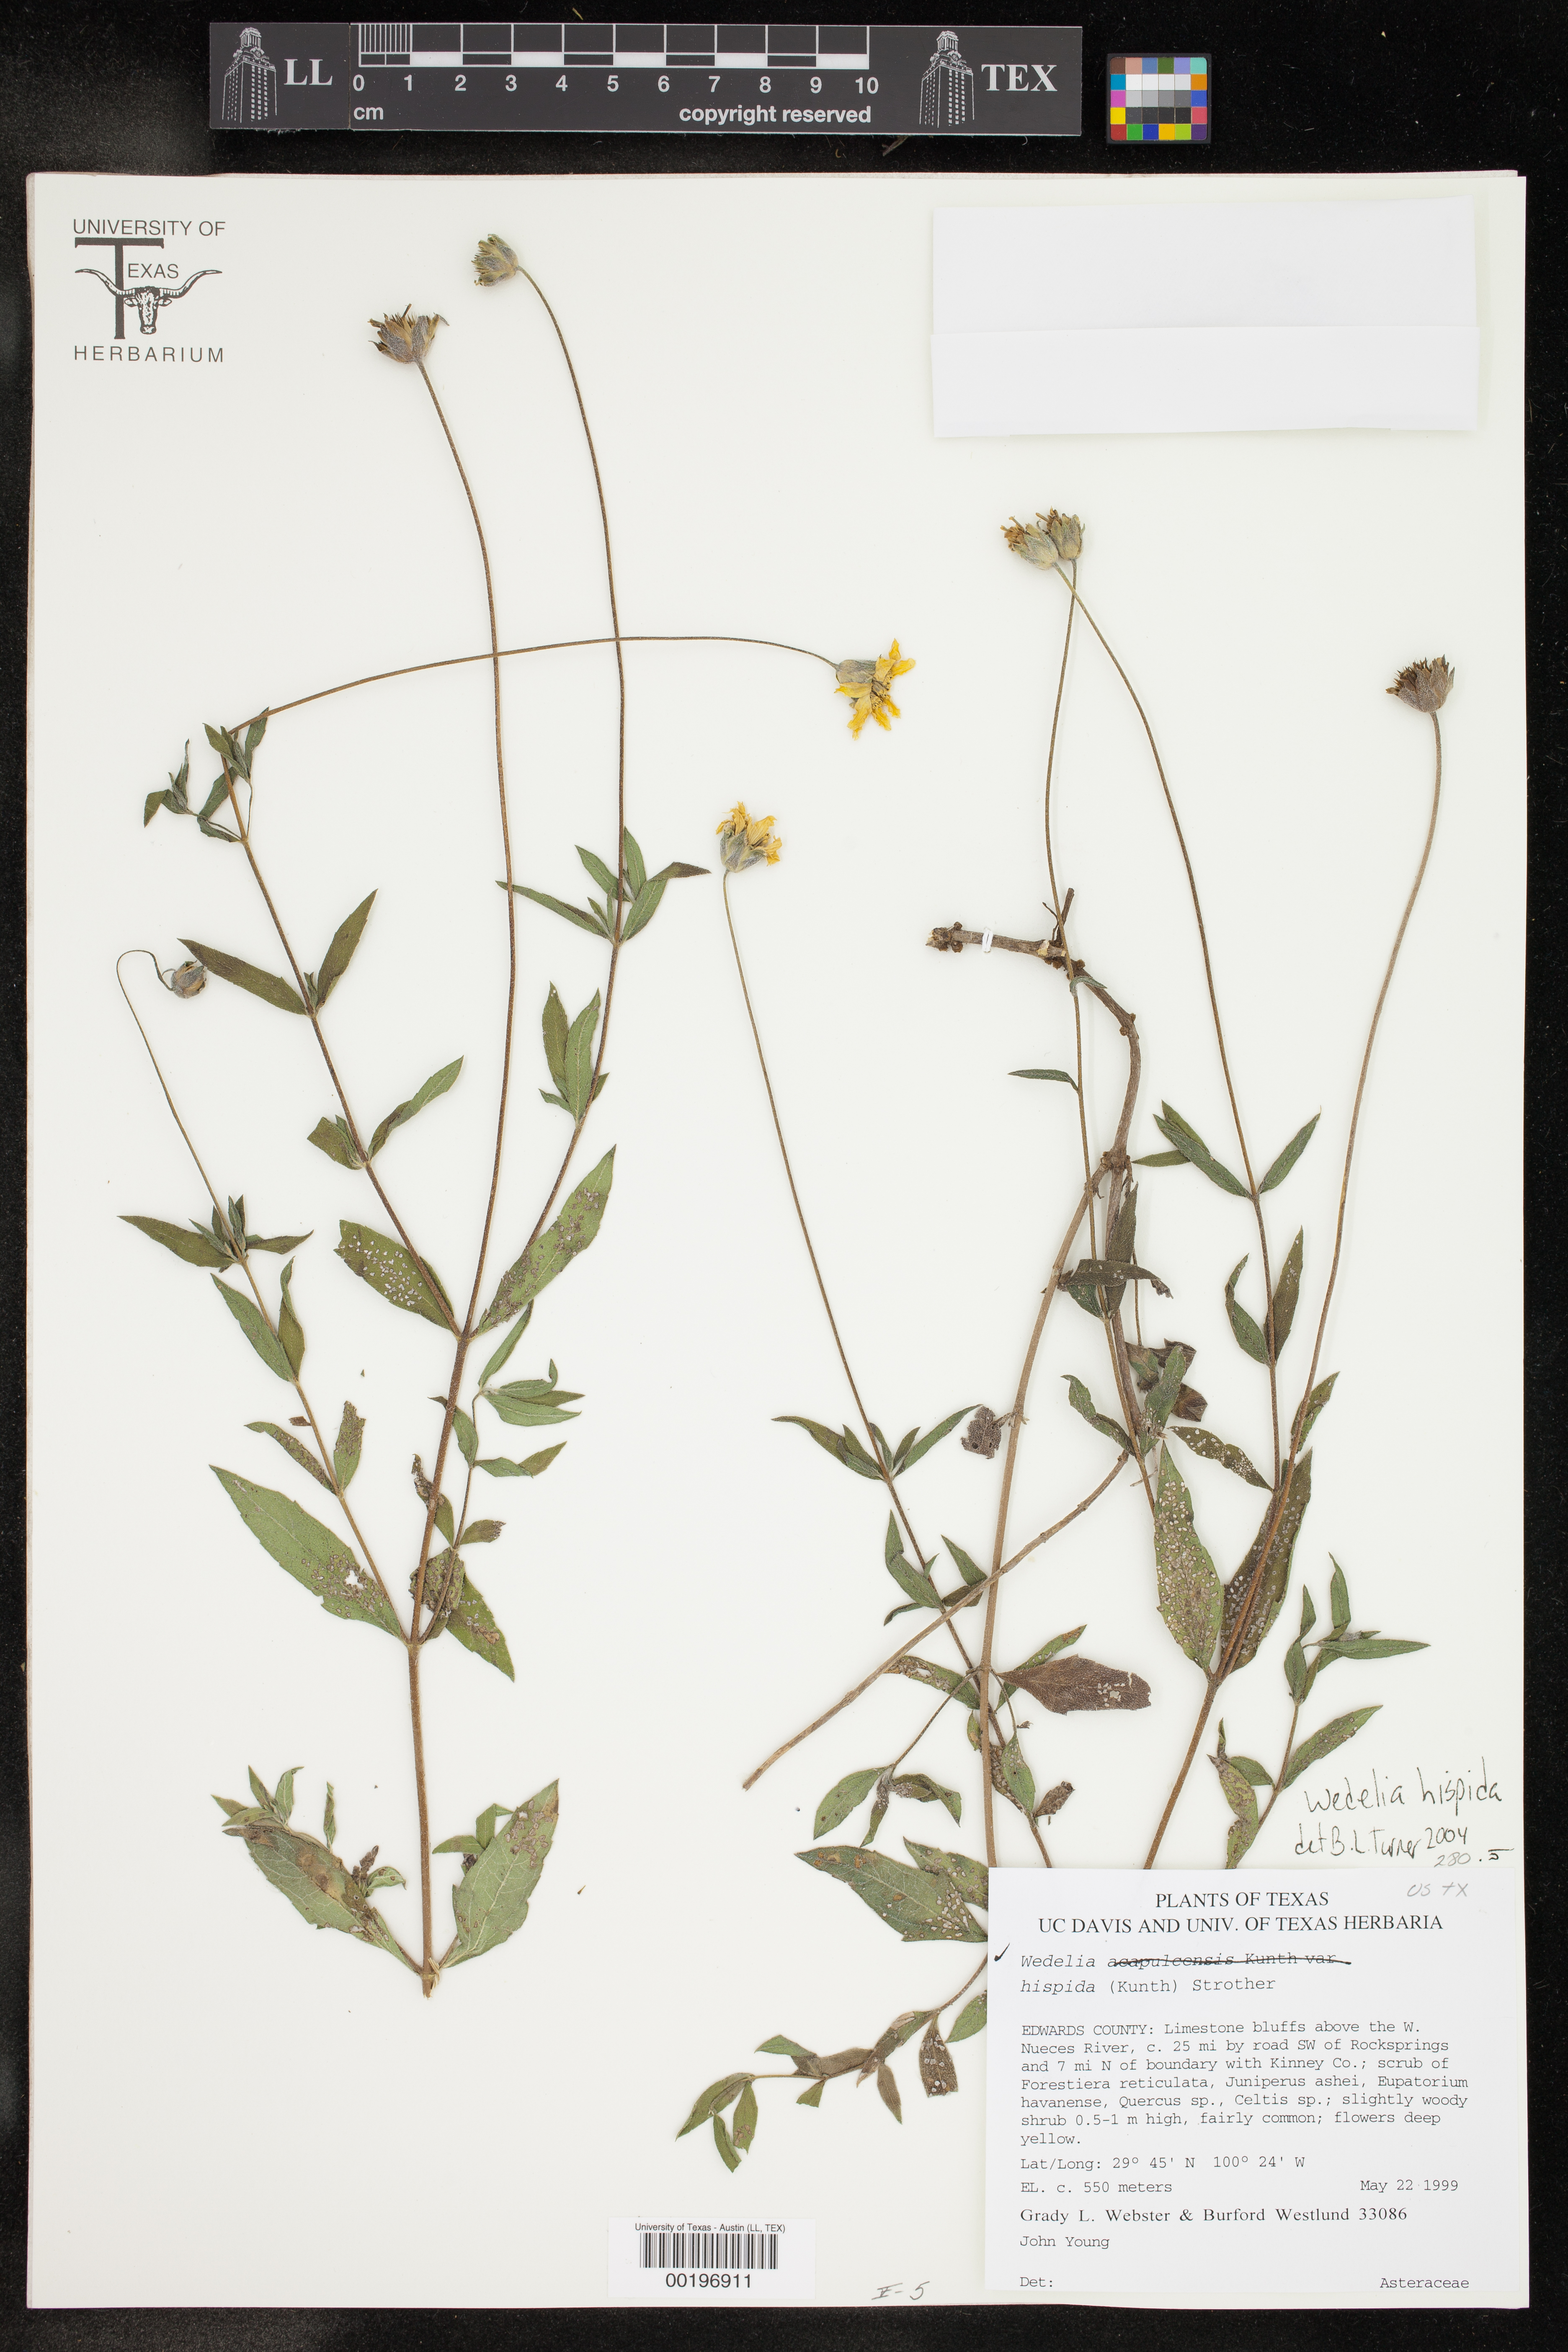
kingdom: Plantae
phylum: Tracheophyta
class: Magnoliopsida
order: Asterales
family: Asteraceae
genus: Wedelia
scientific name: Wedelia acapulcensis
